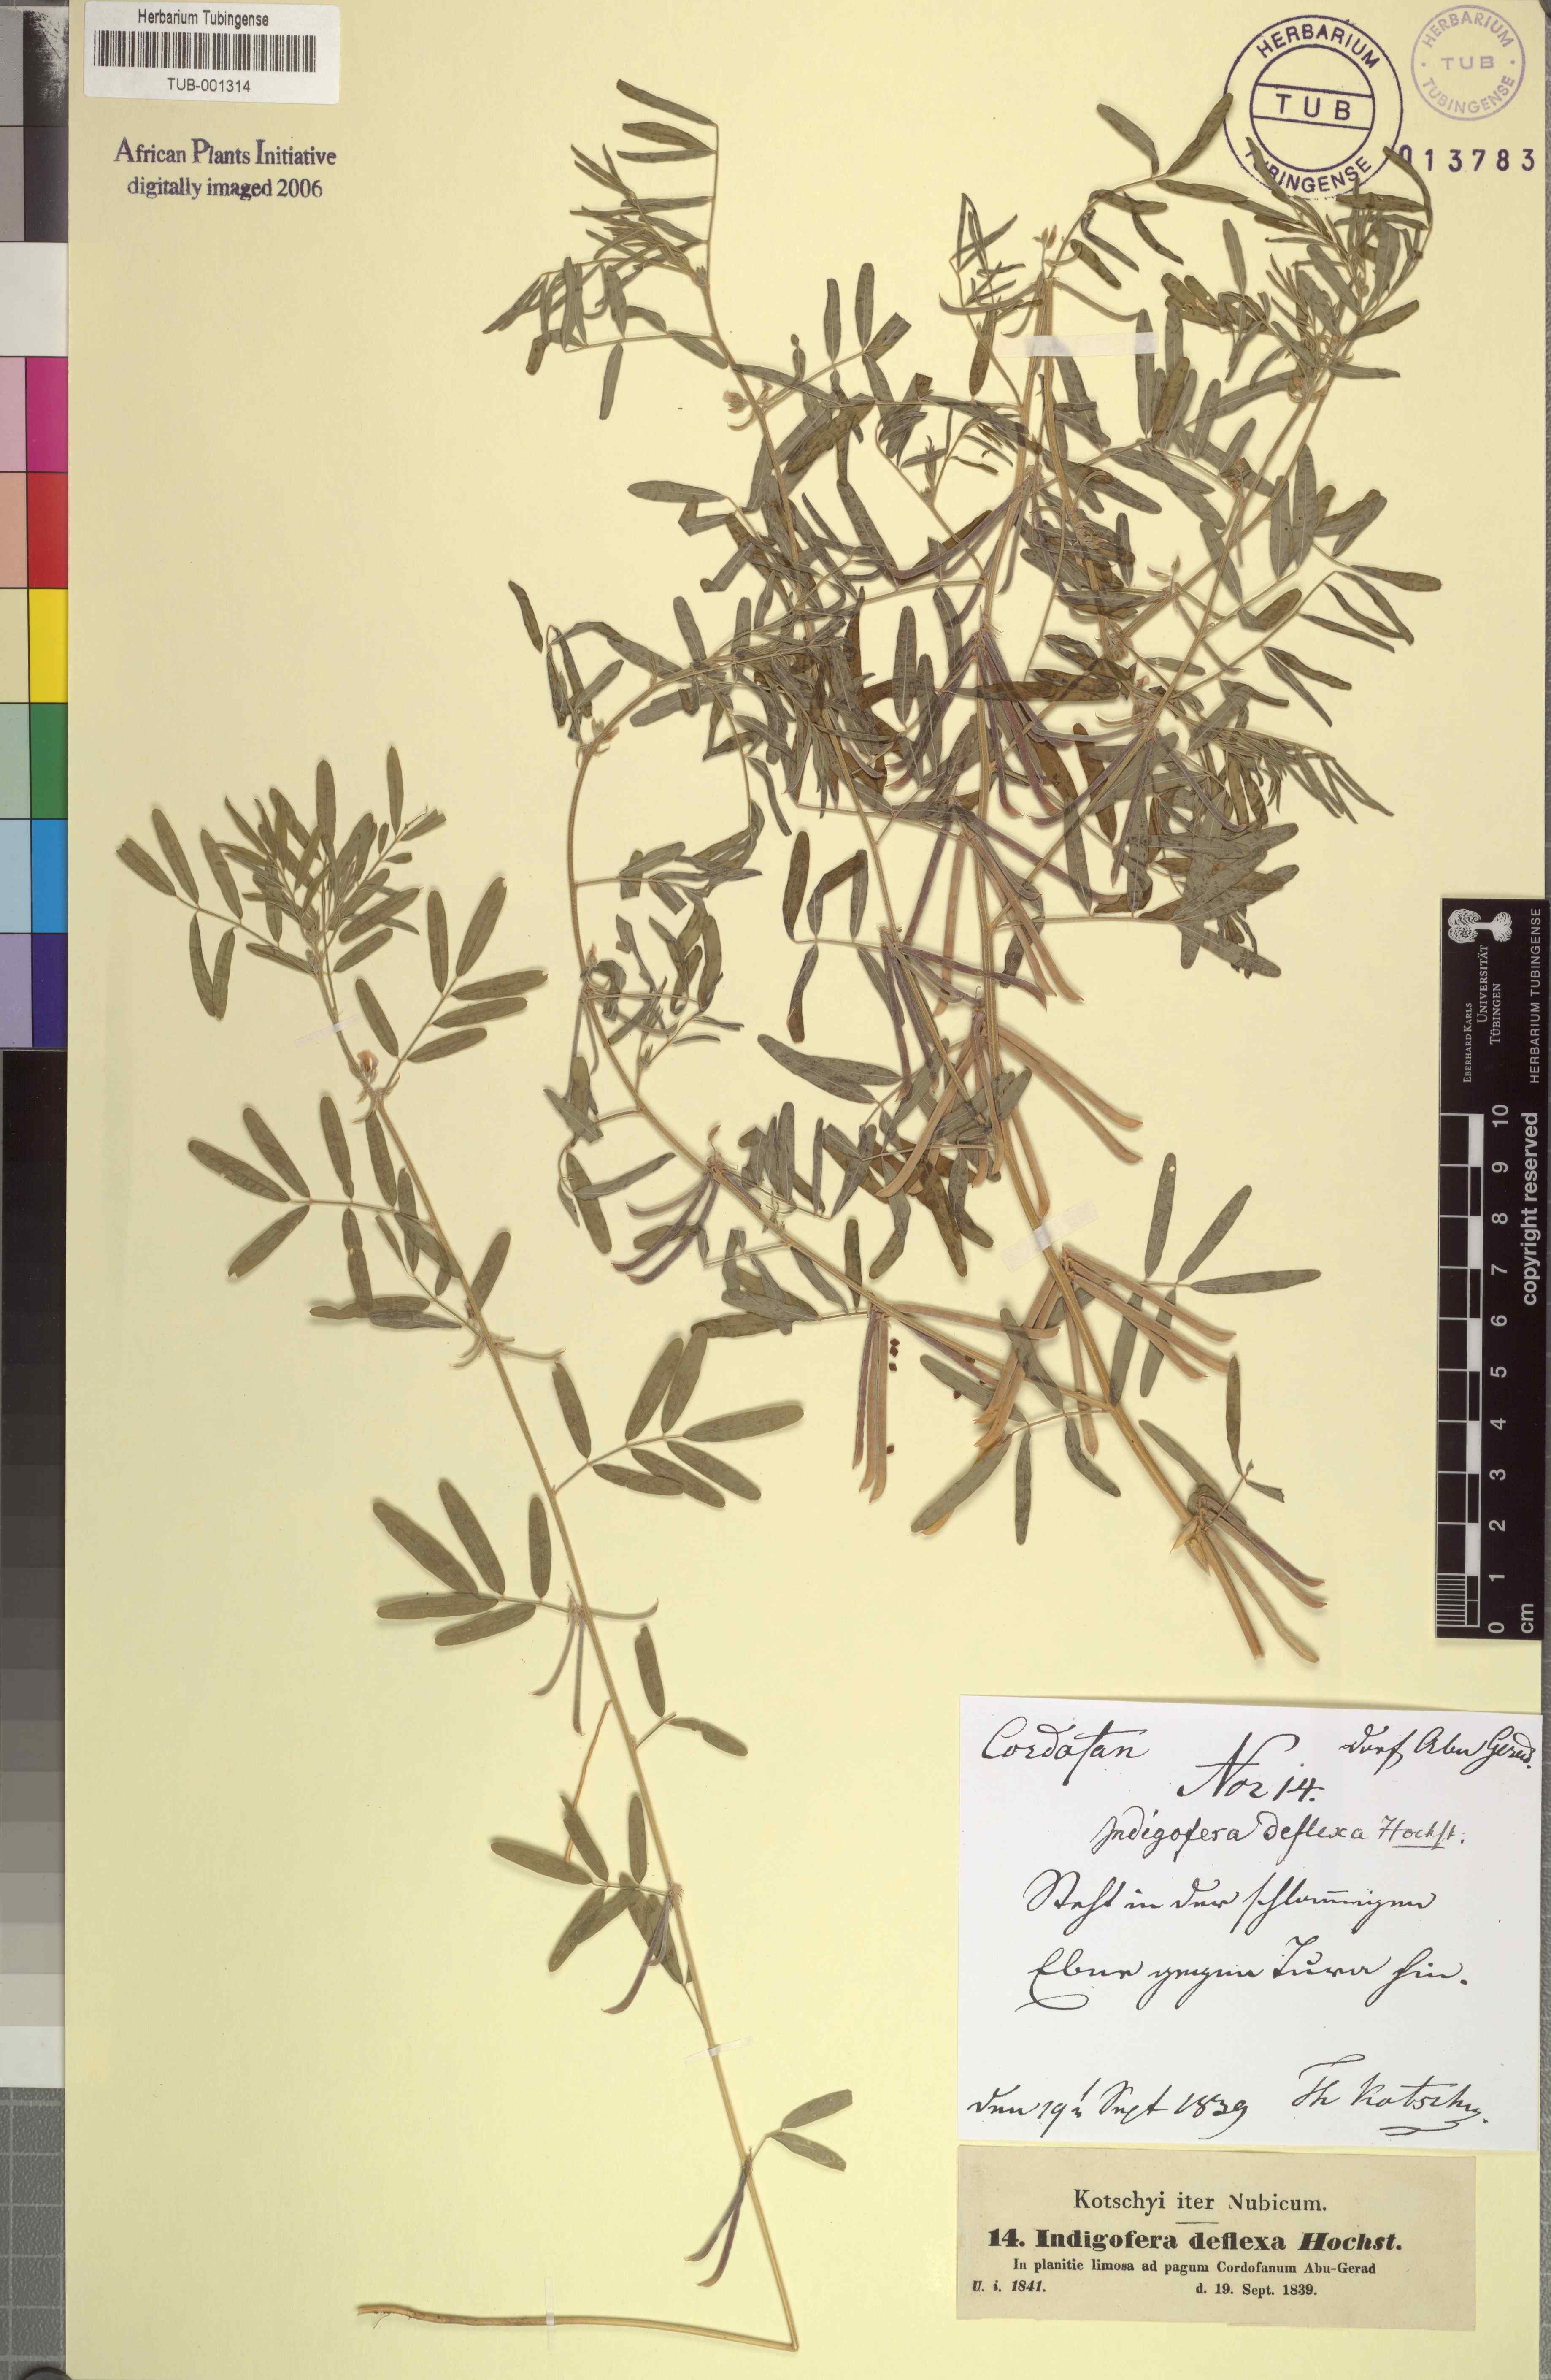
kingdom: Plantae
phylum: Tracheophyta
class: Magnoliopsida
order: Fabales
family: Fabaceae
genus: Indigastrum
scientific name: Indigastrum parviflorum
